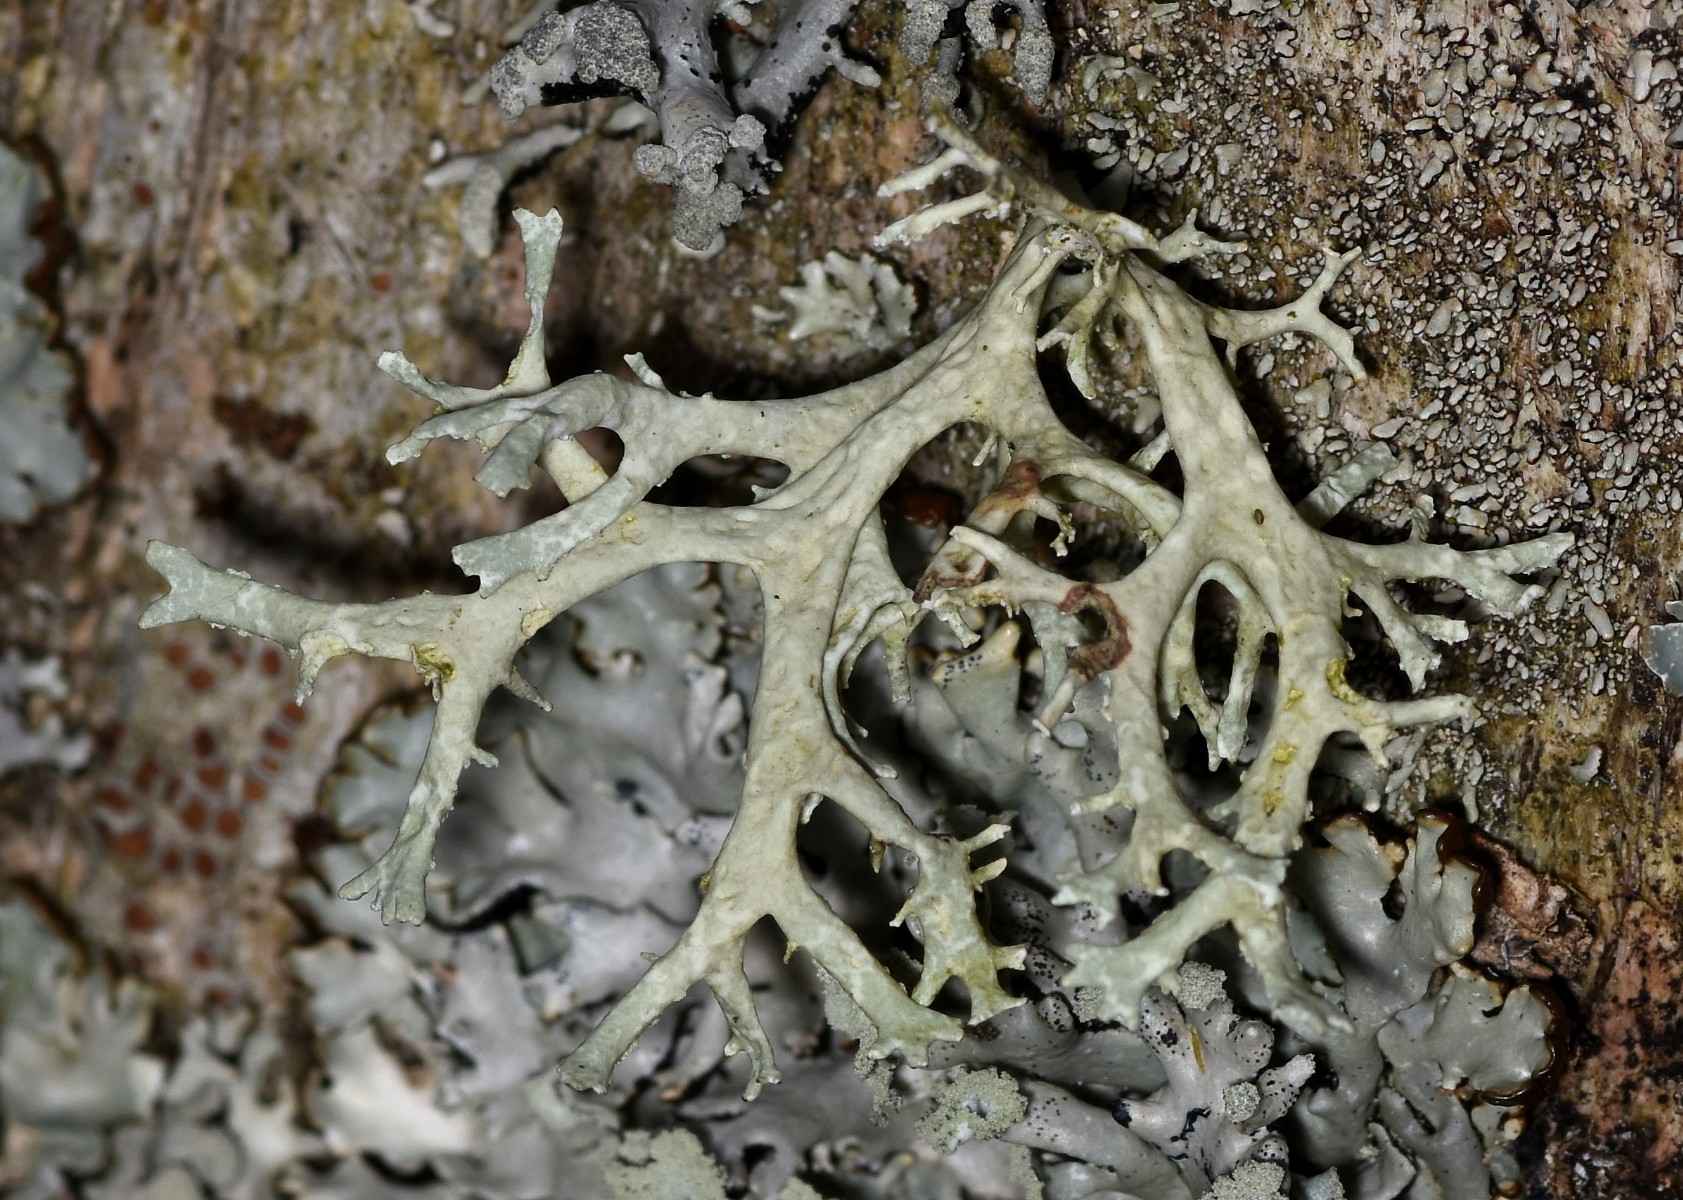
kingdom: Fungi
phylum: Ascomycota
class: Lecanoromycetes
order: Lecanorales
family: Parmeliaceae
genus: Evernia
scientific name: Evernia prunastri
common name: almindelig slåenlav
